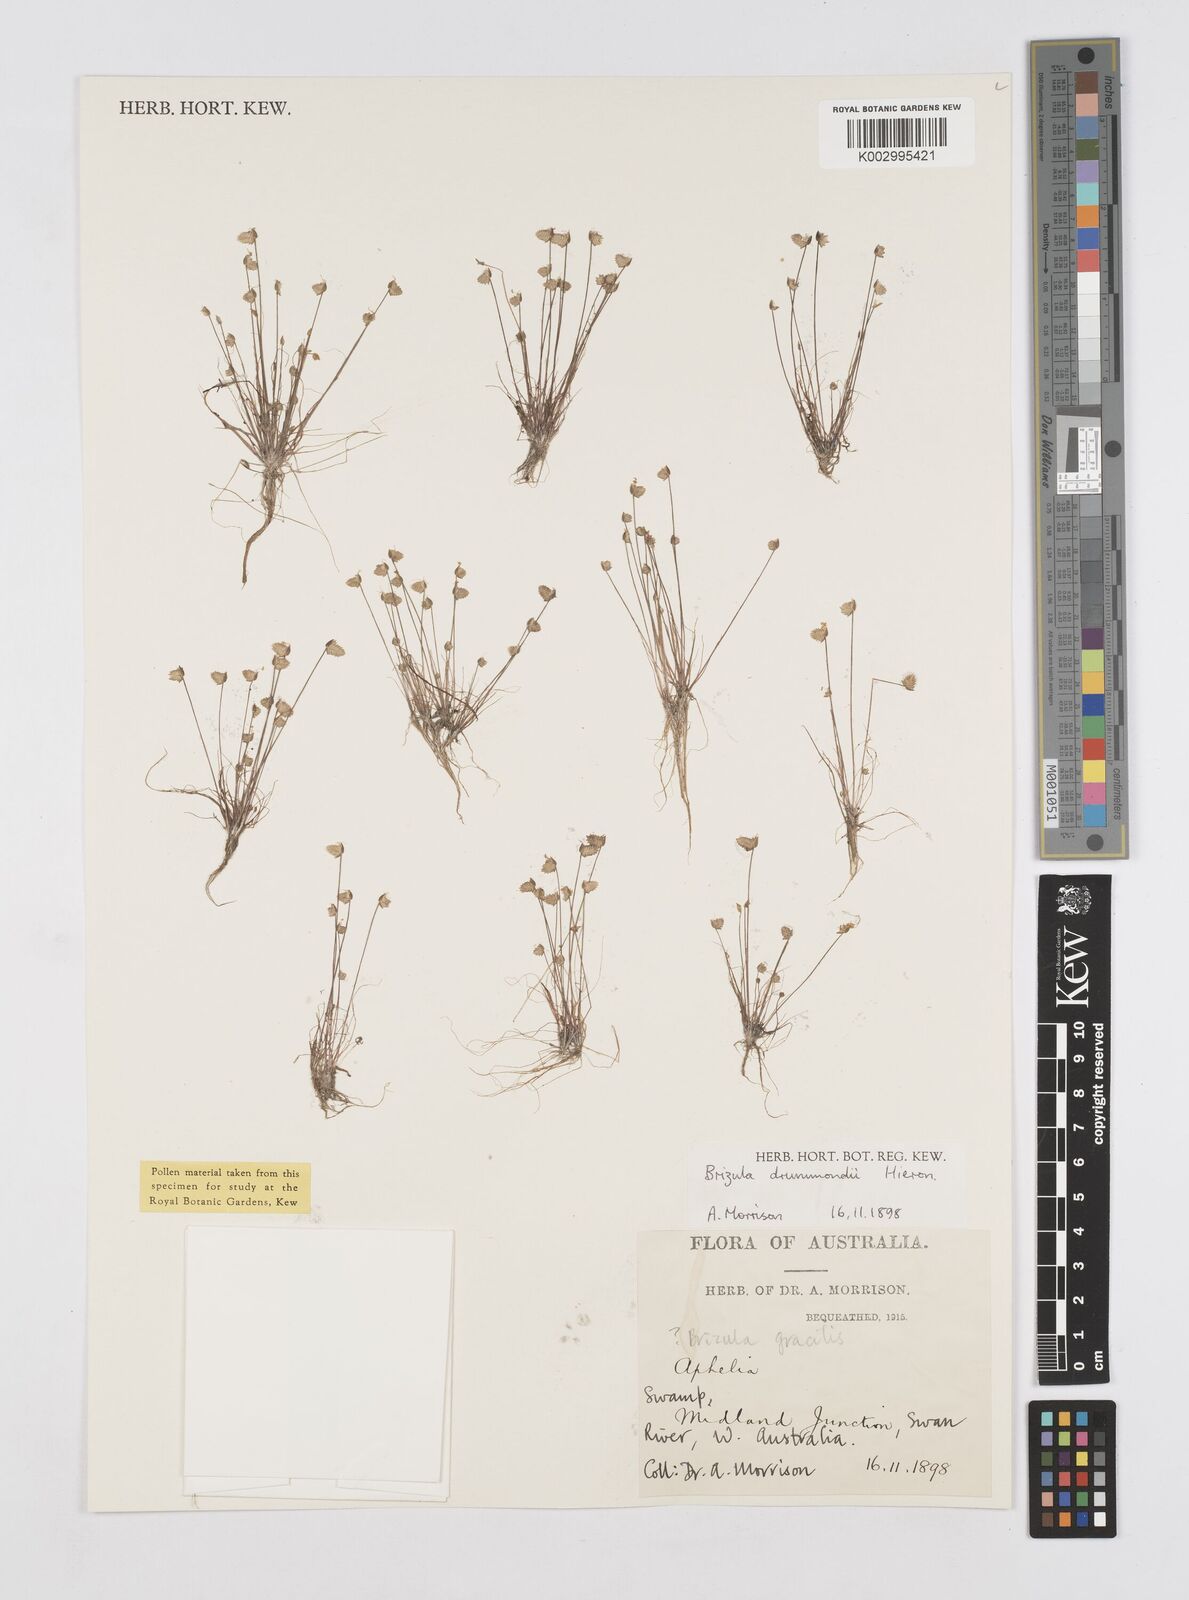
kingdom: Plantae
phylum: Tracheophyta
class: Liliopsida
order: Poales
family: Restionaceae
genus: Aphelia
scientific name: Aphelia drummondii
